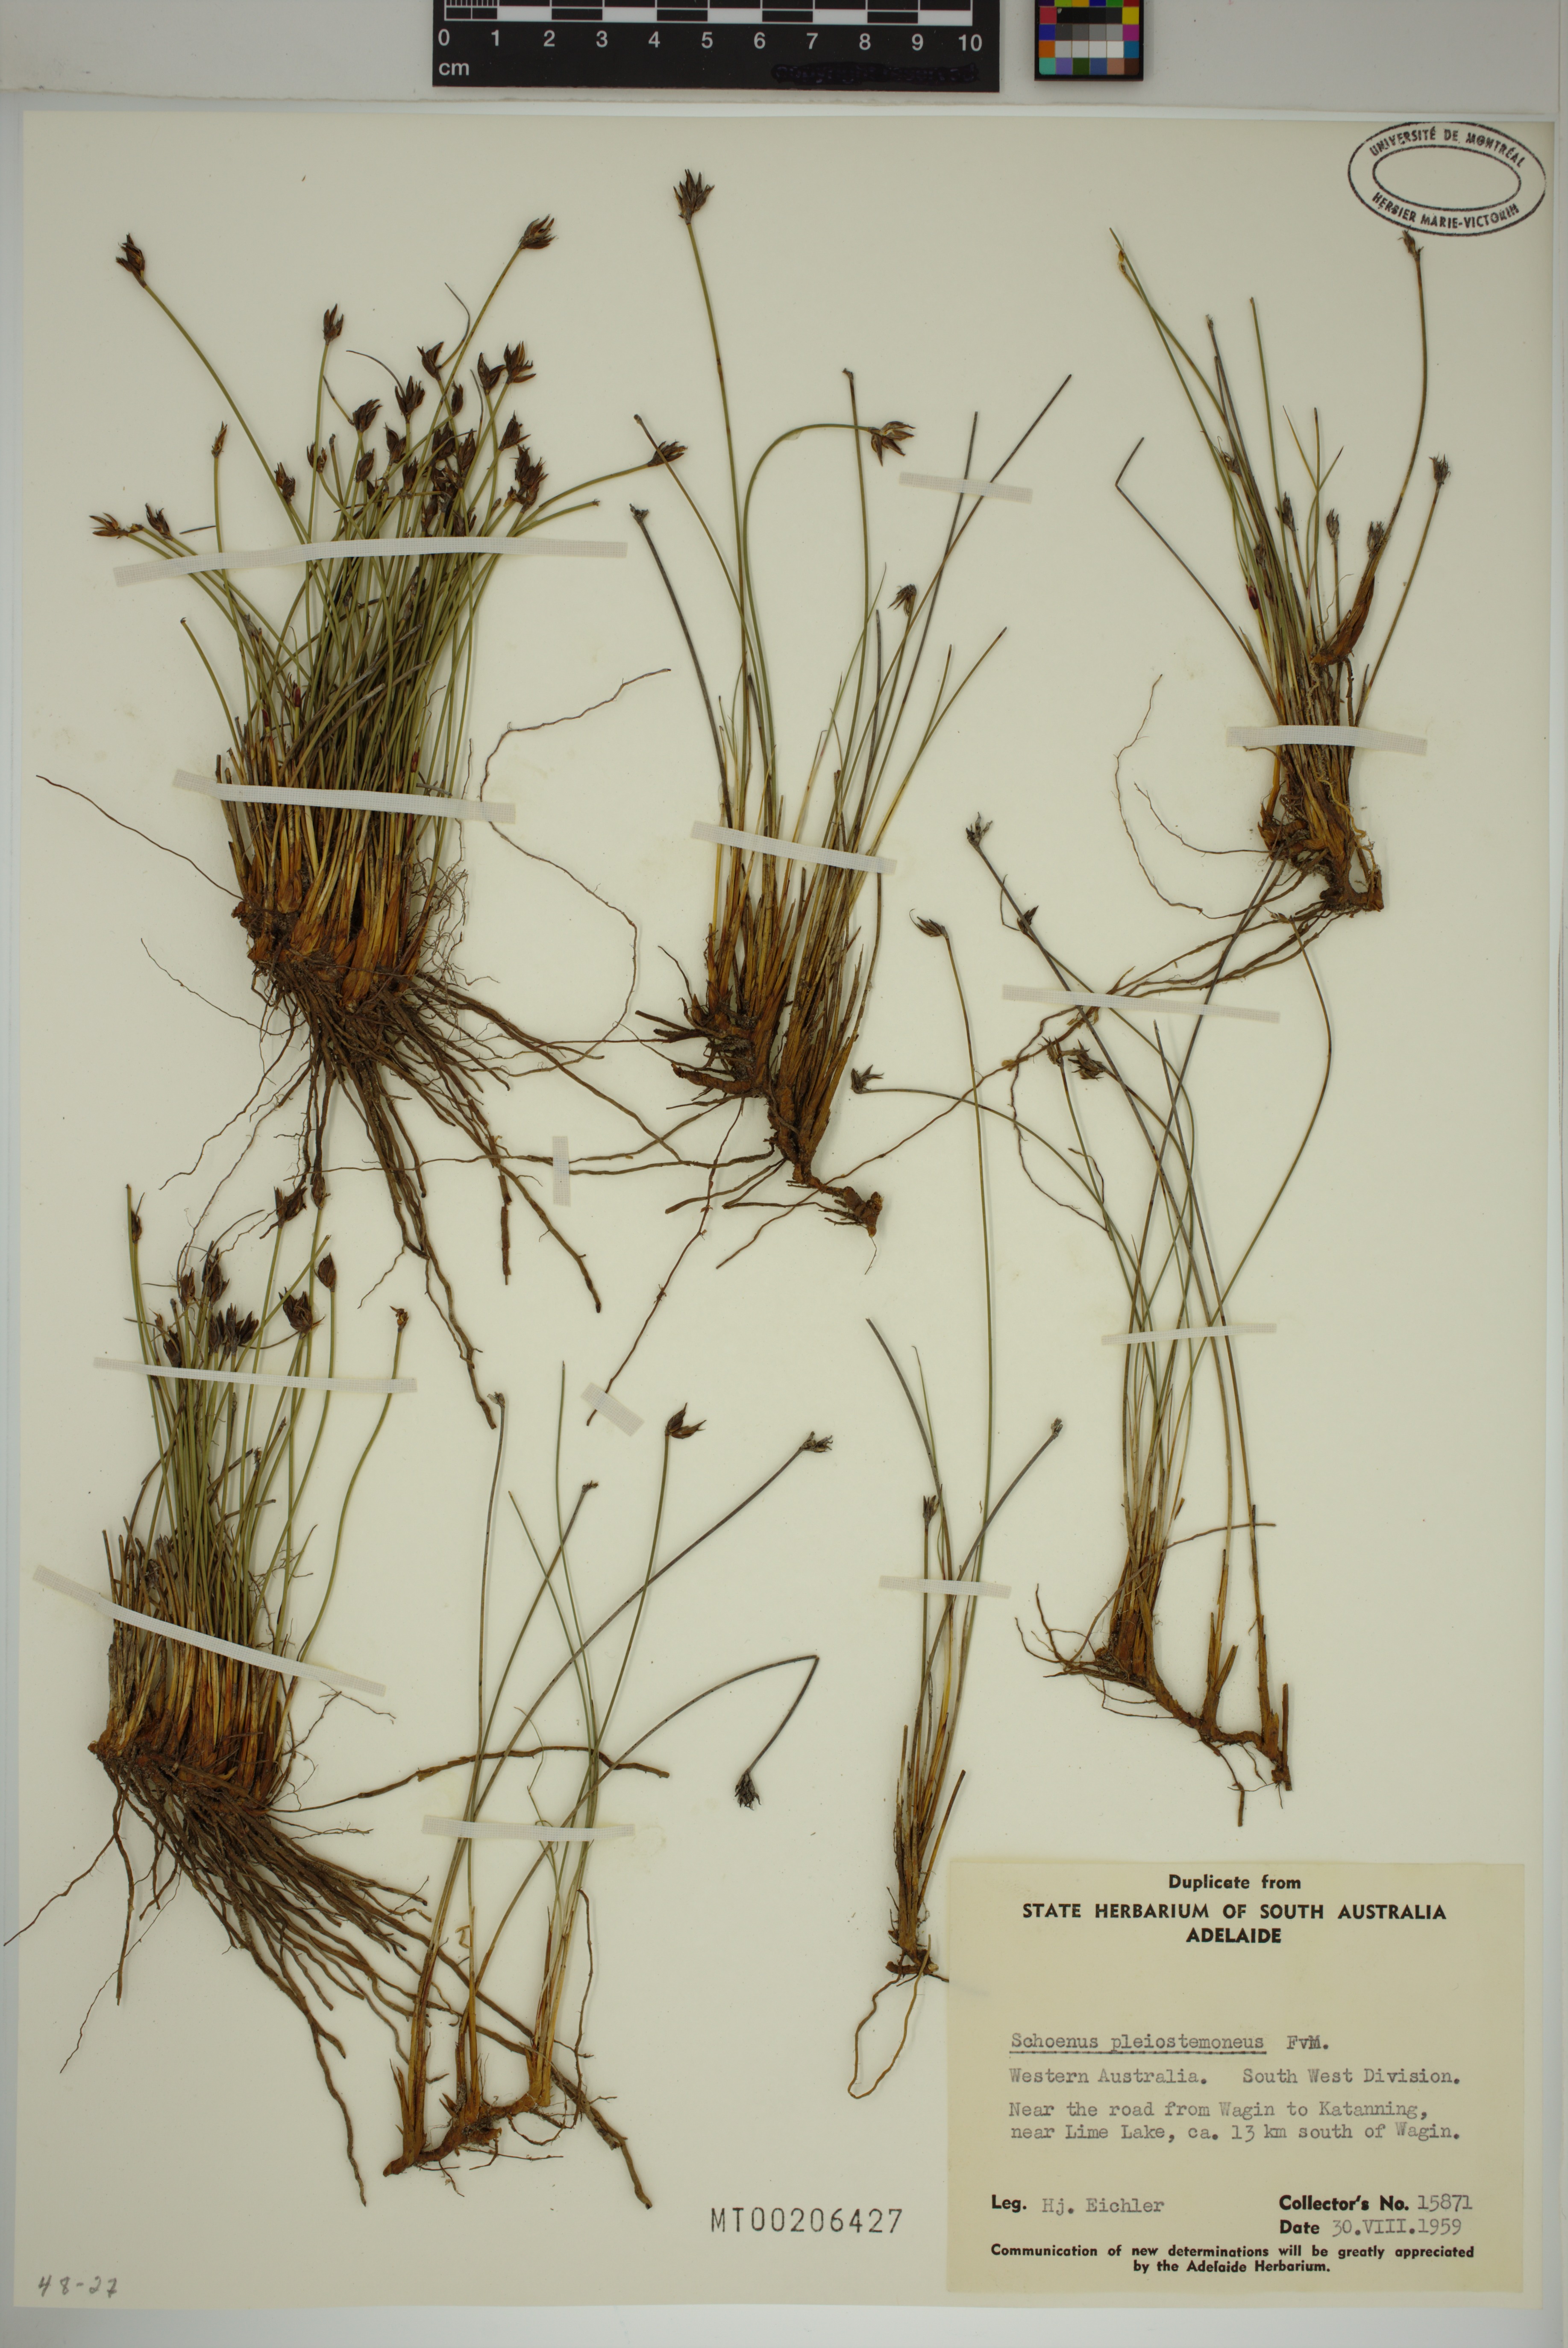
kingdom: Plantae
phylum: Tracheophyta
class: Liliopsida
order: Poales
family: Cyperaceae
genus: Schoenus
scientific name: Schoenus pleiostemoneus
